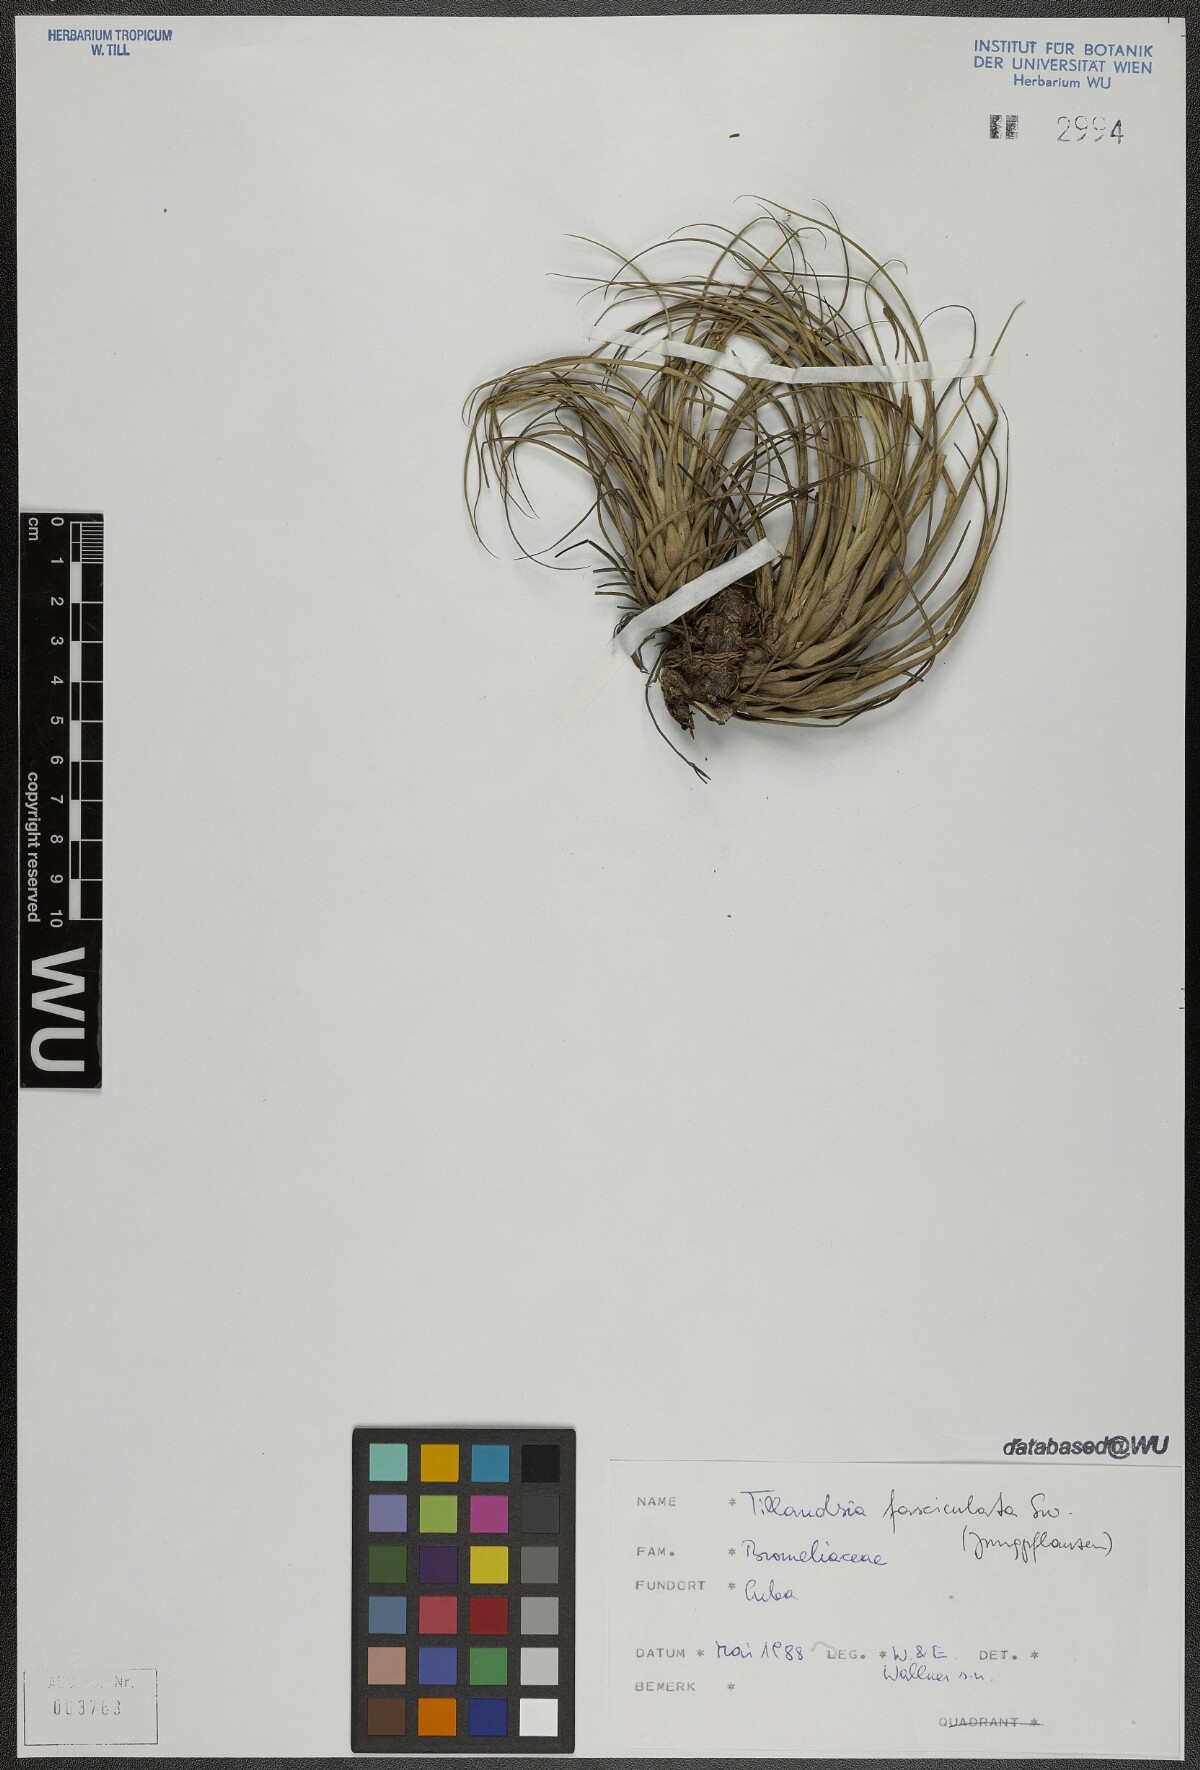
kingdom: Plantae
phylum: Tracheophyta
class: Liliopsida
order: Poales
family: Bromeliaceae
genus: Tillandsia
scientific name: Tillandsia fasciculata
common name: Giant airplant
